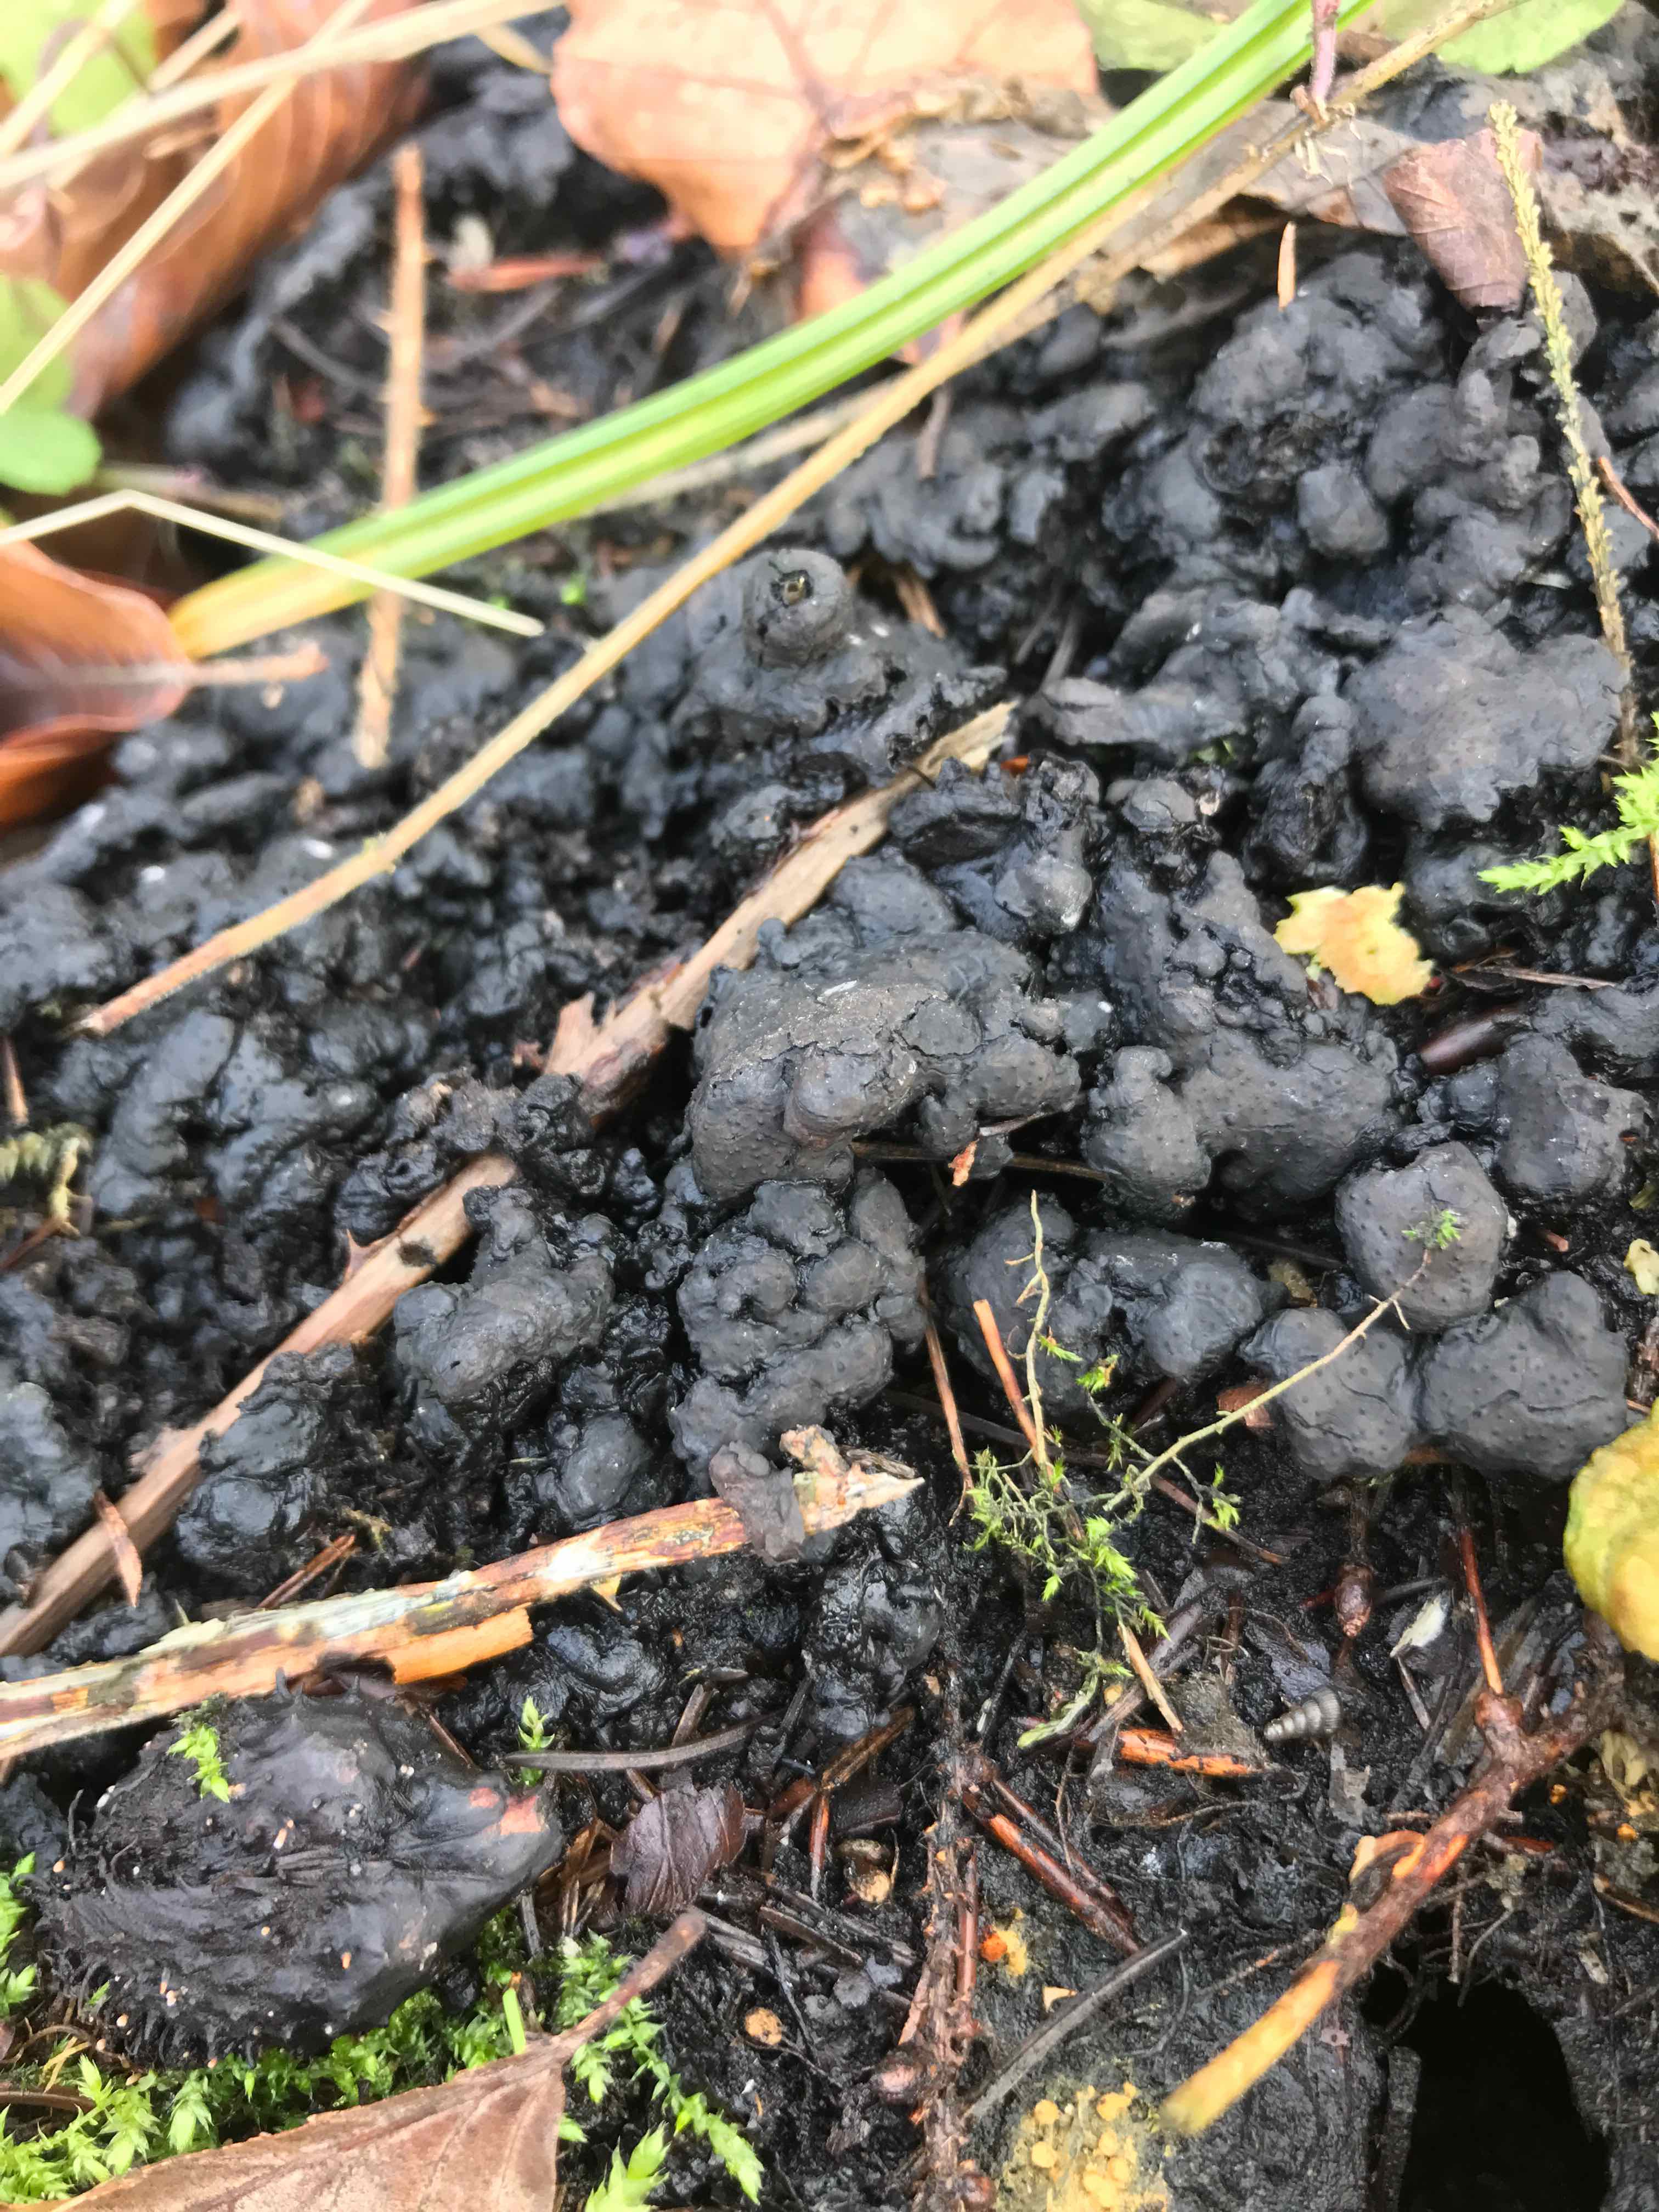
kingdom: Fungi
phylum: Ascomycota
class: Sordariomycetes
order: Xylariales
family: Xylariaceae
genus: Kretzschmaria
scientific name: Kretzschmaria deusta
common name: stor kulsvamp
